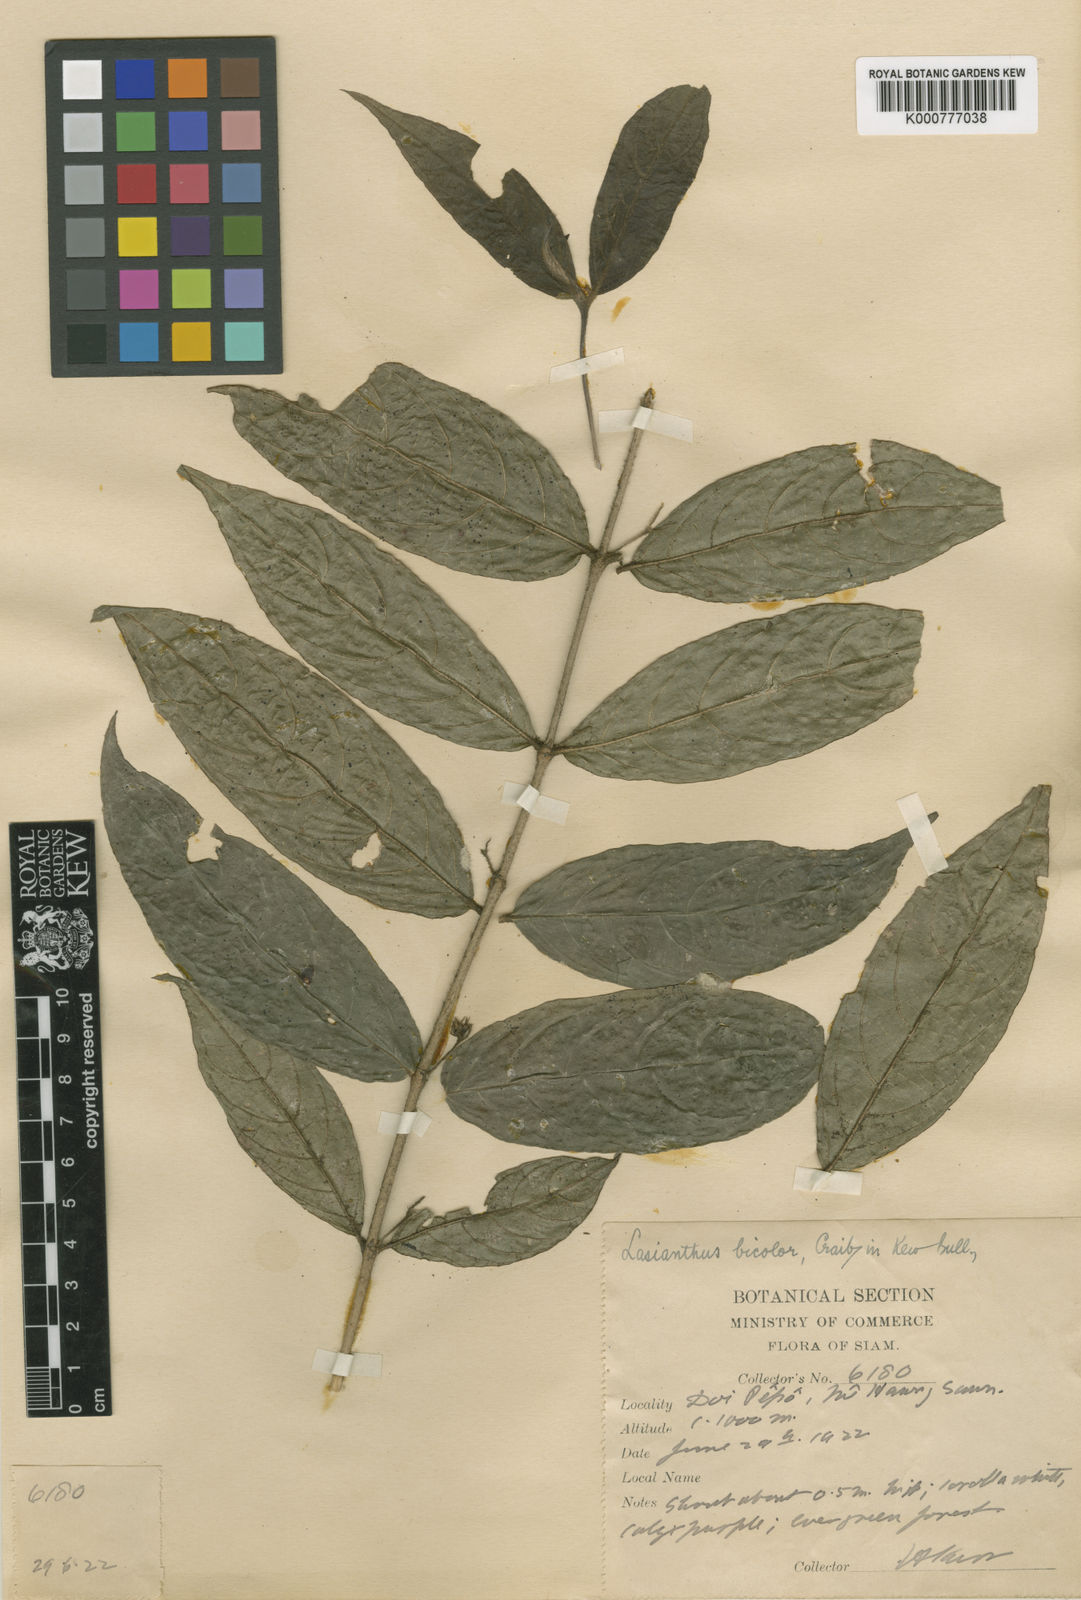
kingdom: Plantae
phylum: Tracheophyta
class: Magnoliopsida
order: Gentianales
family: Rubiaceae
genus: Lasianthus
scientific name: Lasianthus bicolor
